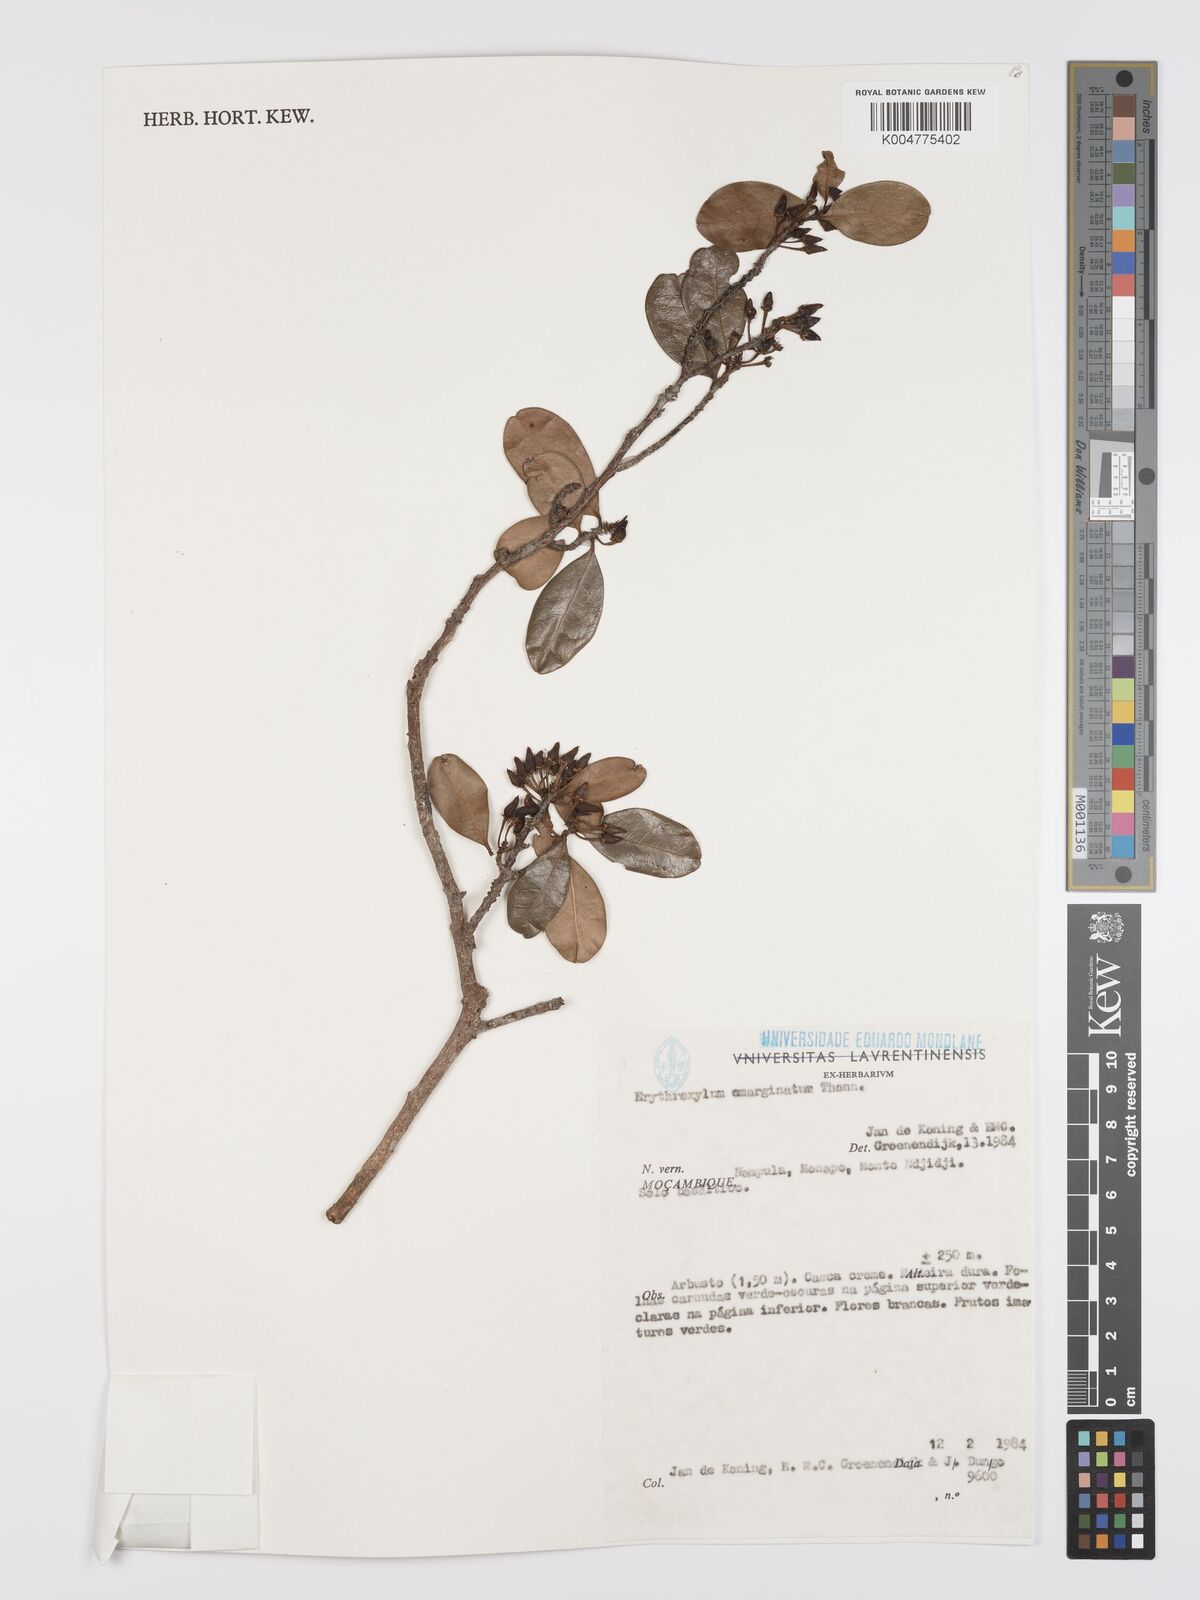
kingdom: Plantae
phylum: Tracheophyta
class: Magnoliopsida
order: Malpighiales
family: Erythroxylaceae
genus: Erythroxylum
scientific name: Erythroxylum emarginatum
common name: African coca-tree
